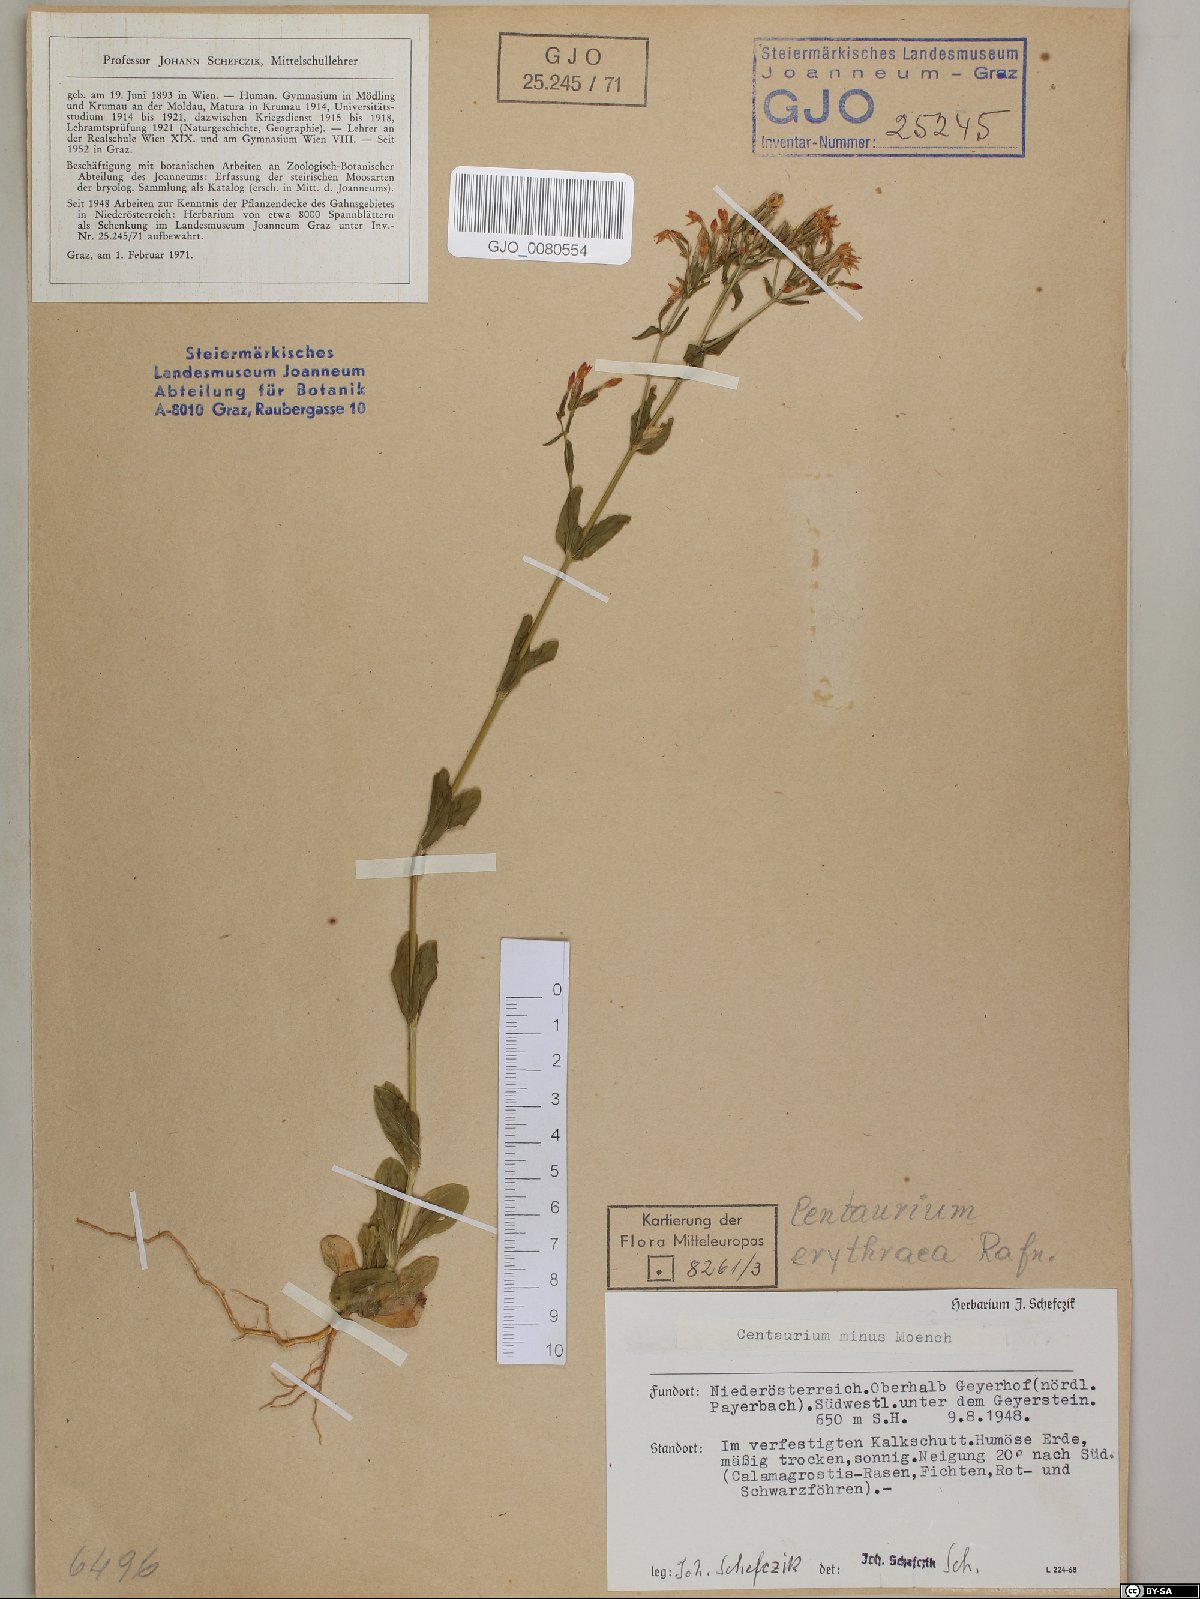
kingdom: Plantae
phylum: Tracheophyta
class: Magnoliopsida
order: Gentianales
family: Gentianaceae
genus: Centaurium
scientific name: Centaurium erythraea
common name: Common centaury
